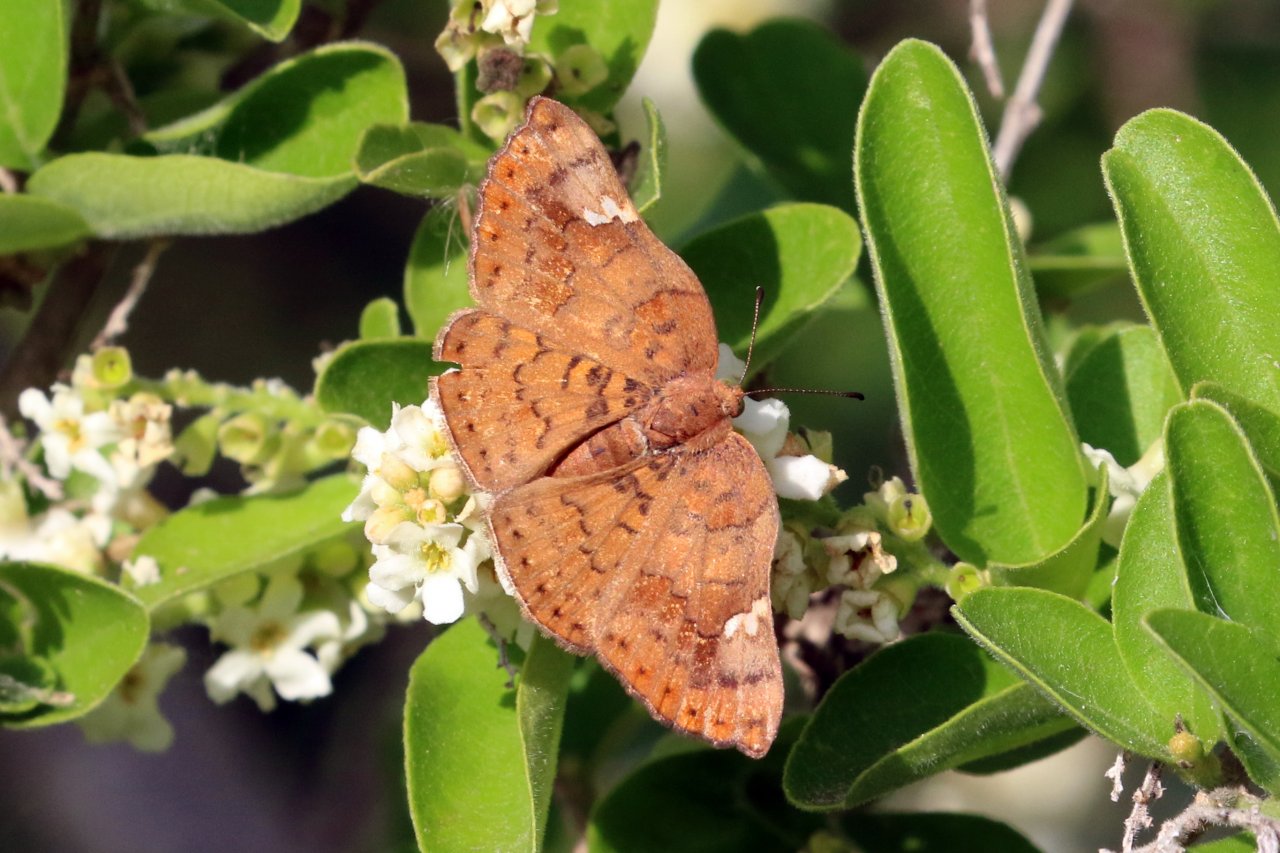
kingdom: Animalia
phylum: Arthropoda
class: Insecta
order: Lepidoptera
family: Lycaenidae
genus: Emesis
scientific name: Emesis emesia
